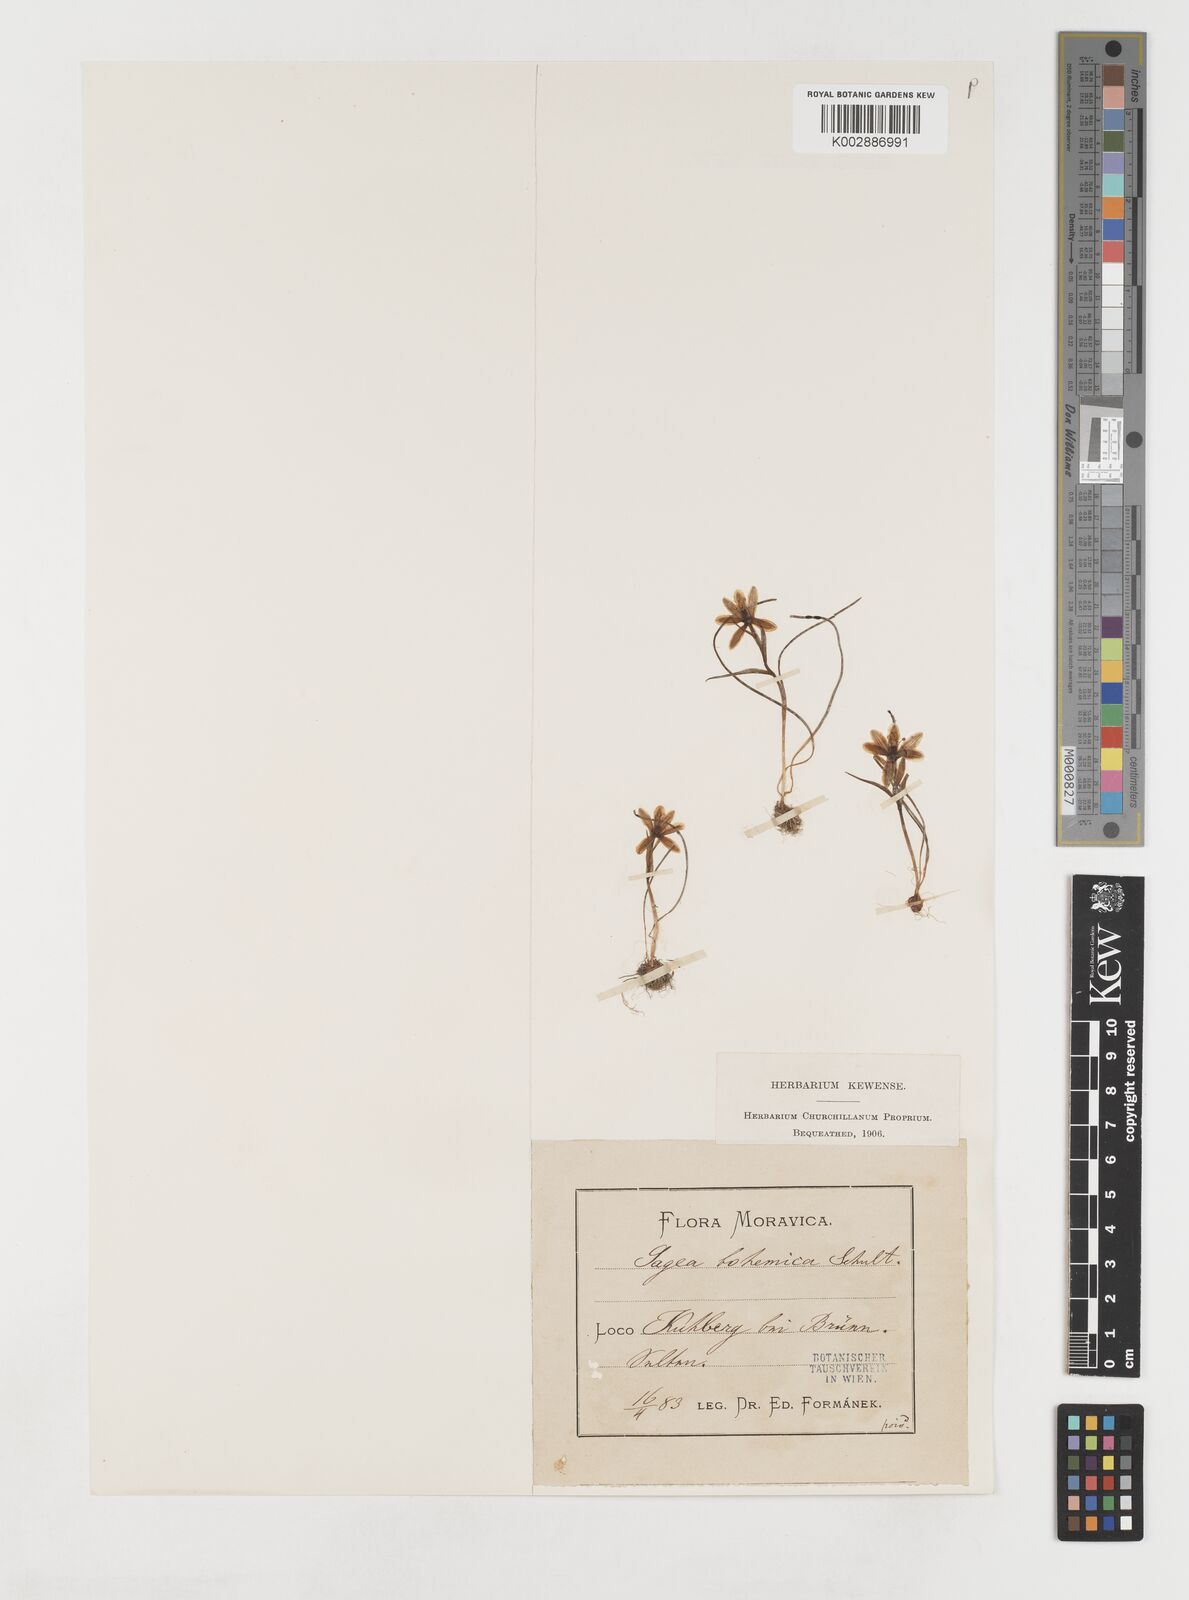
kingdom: Plantae
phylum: Tracheophyta
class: Liliopsida
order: Liliales
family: Liliaceae
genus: Gagea
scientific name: Gagea bohemica
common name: Early star-of-bethlehem
